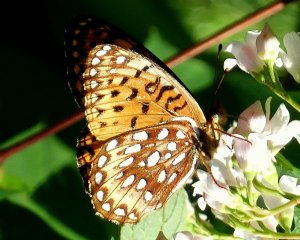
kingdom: Animalia
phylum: Arthropoda
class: Insecta
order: Lepidoptera
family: Nymphalidae
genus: Speyeria
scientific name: Speyeria zerene
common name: Zerene Fritillary
